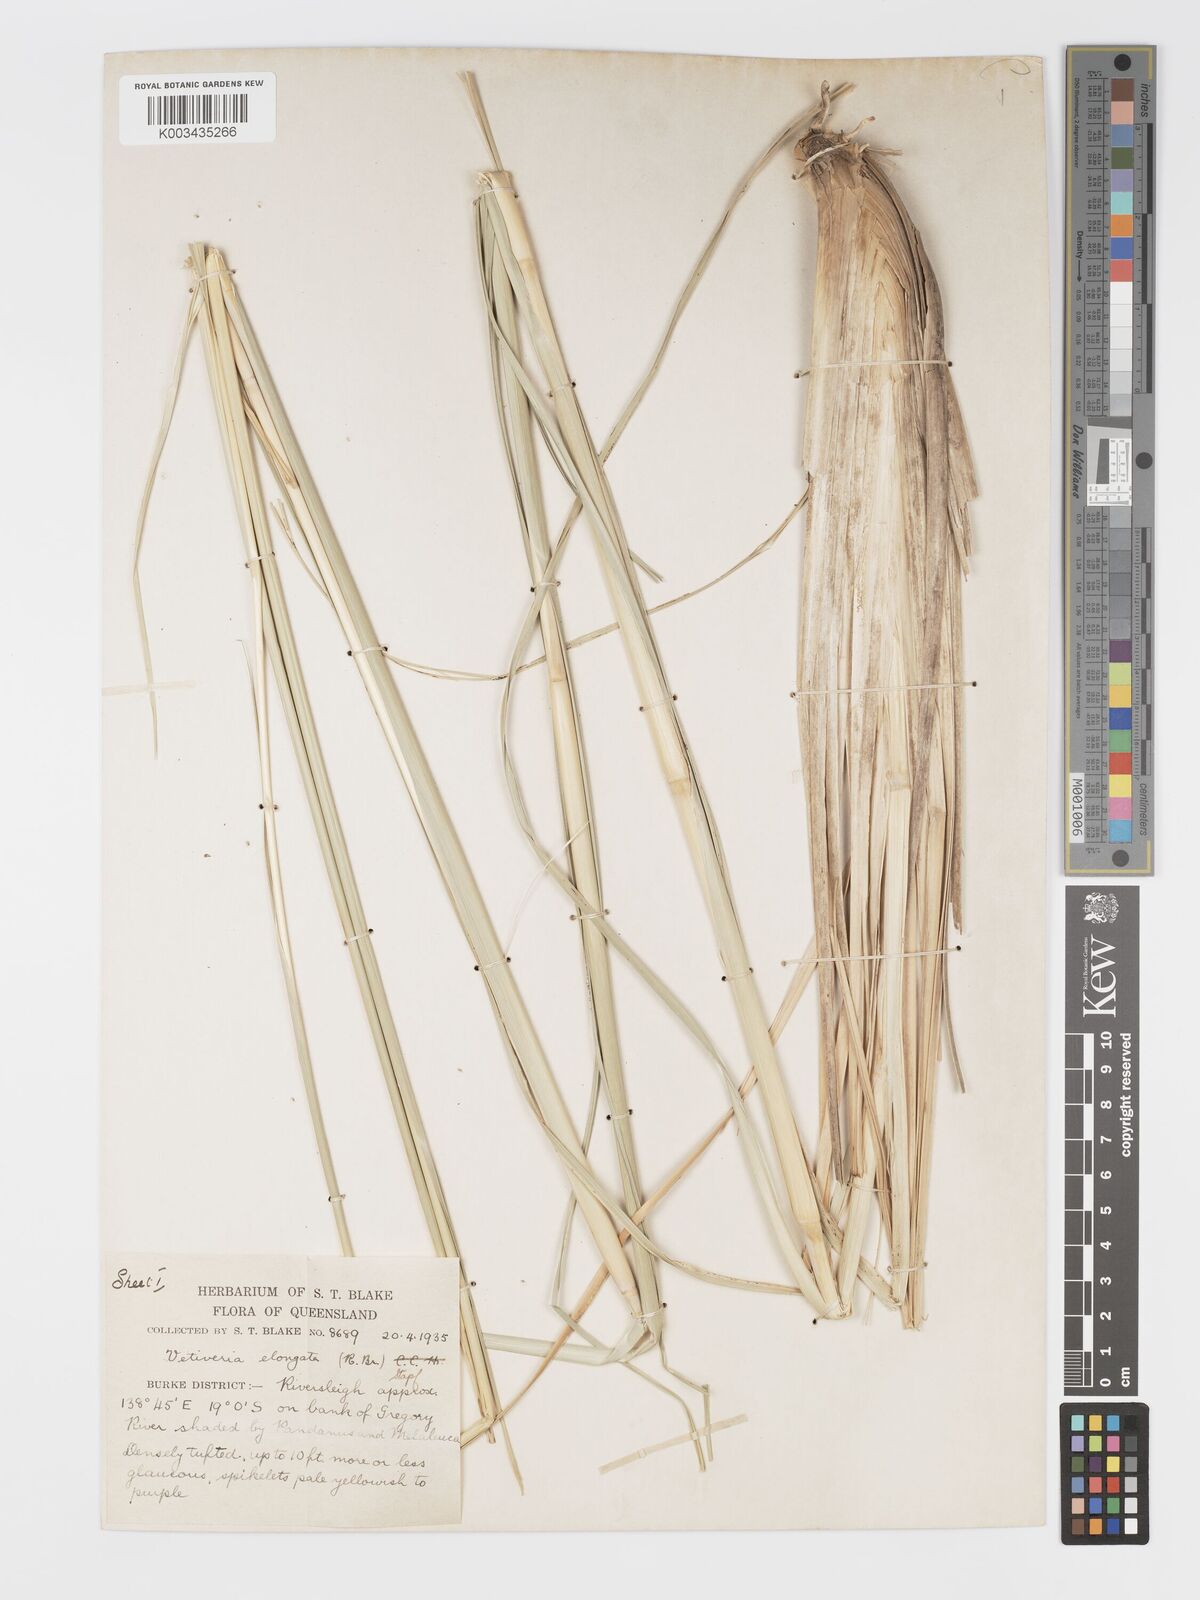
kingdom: Plantae
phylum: Tracheophyta
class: Liliopsida
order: Poales
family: Poaceae
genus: Chrysopogon
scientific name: Chrysopogon elongatus
